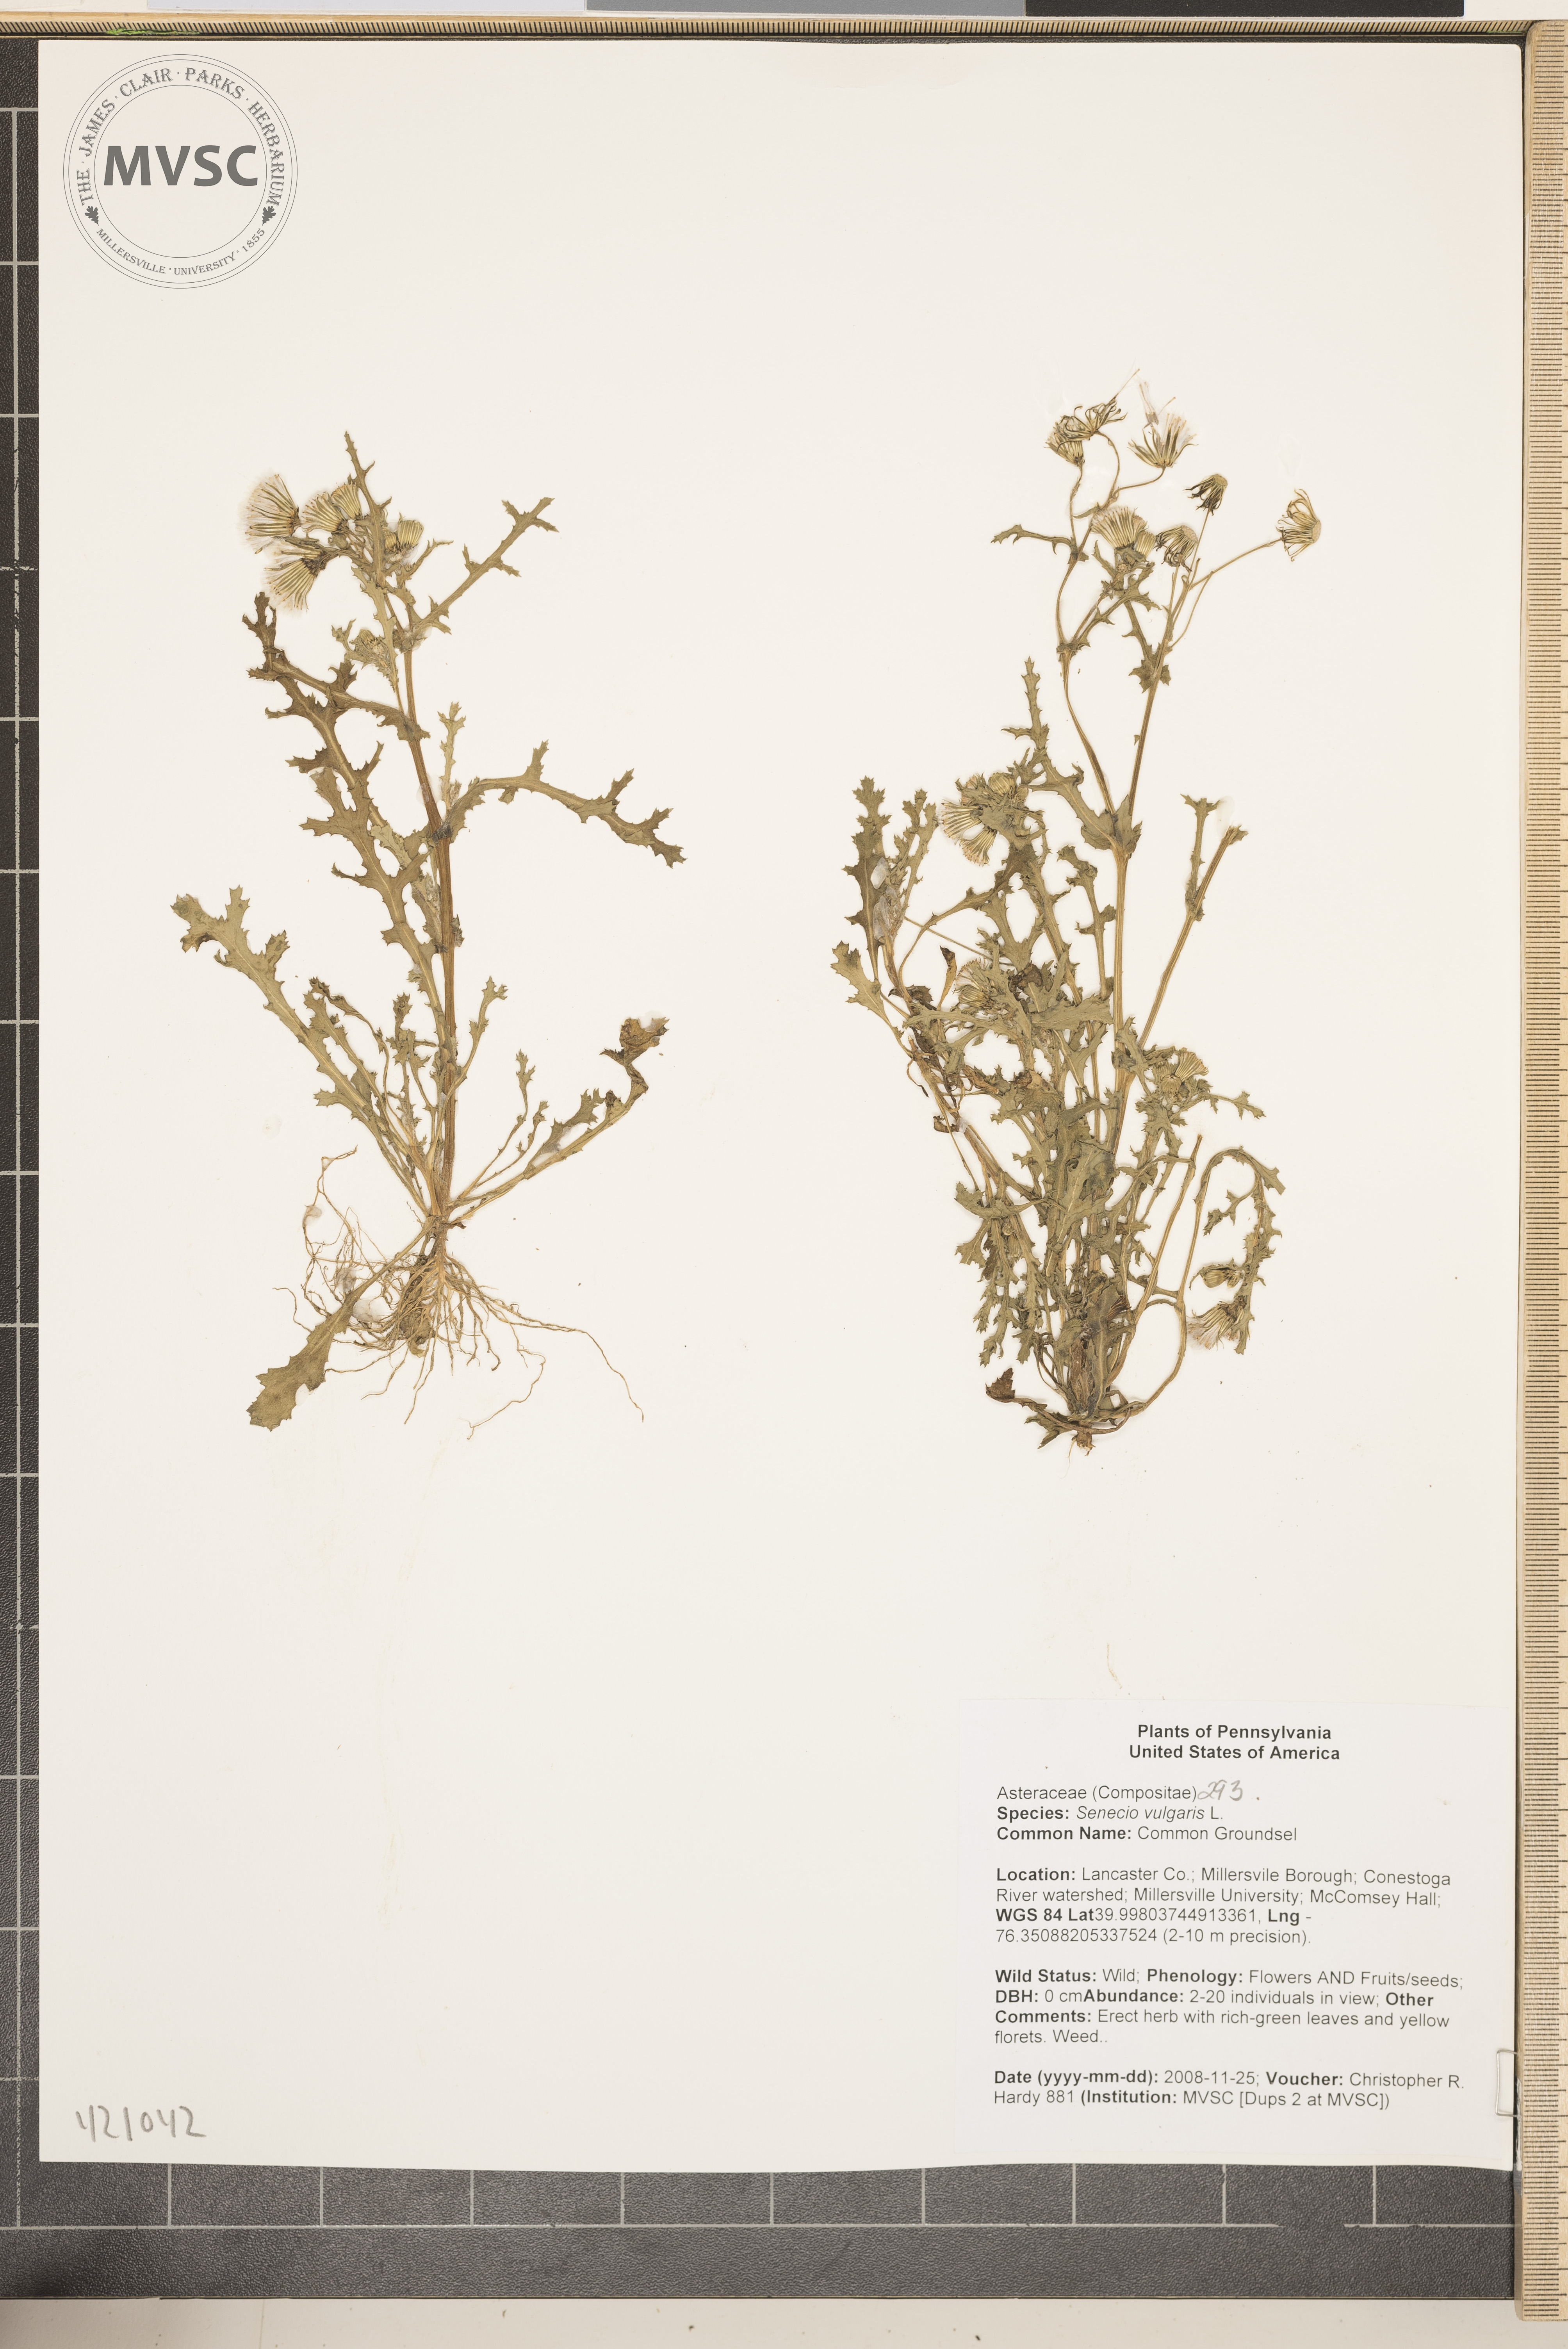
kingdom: Plantae
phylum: Tracheophyta
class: Magnoliopsida
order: Asterales
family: Asteraceae
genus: Senecio
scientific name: Senecio vulgaris
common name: Common Groundsel
